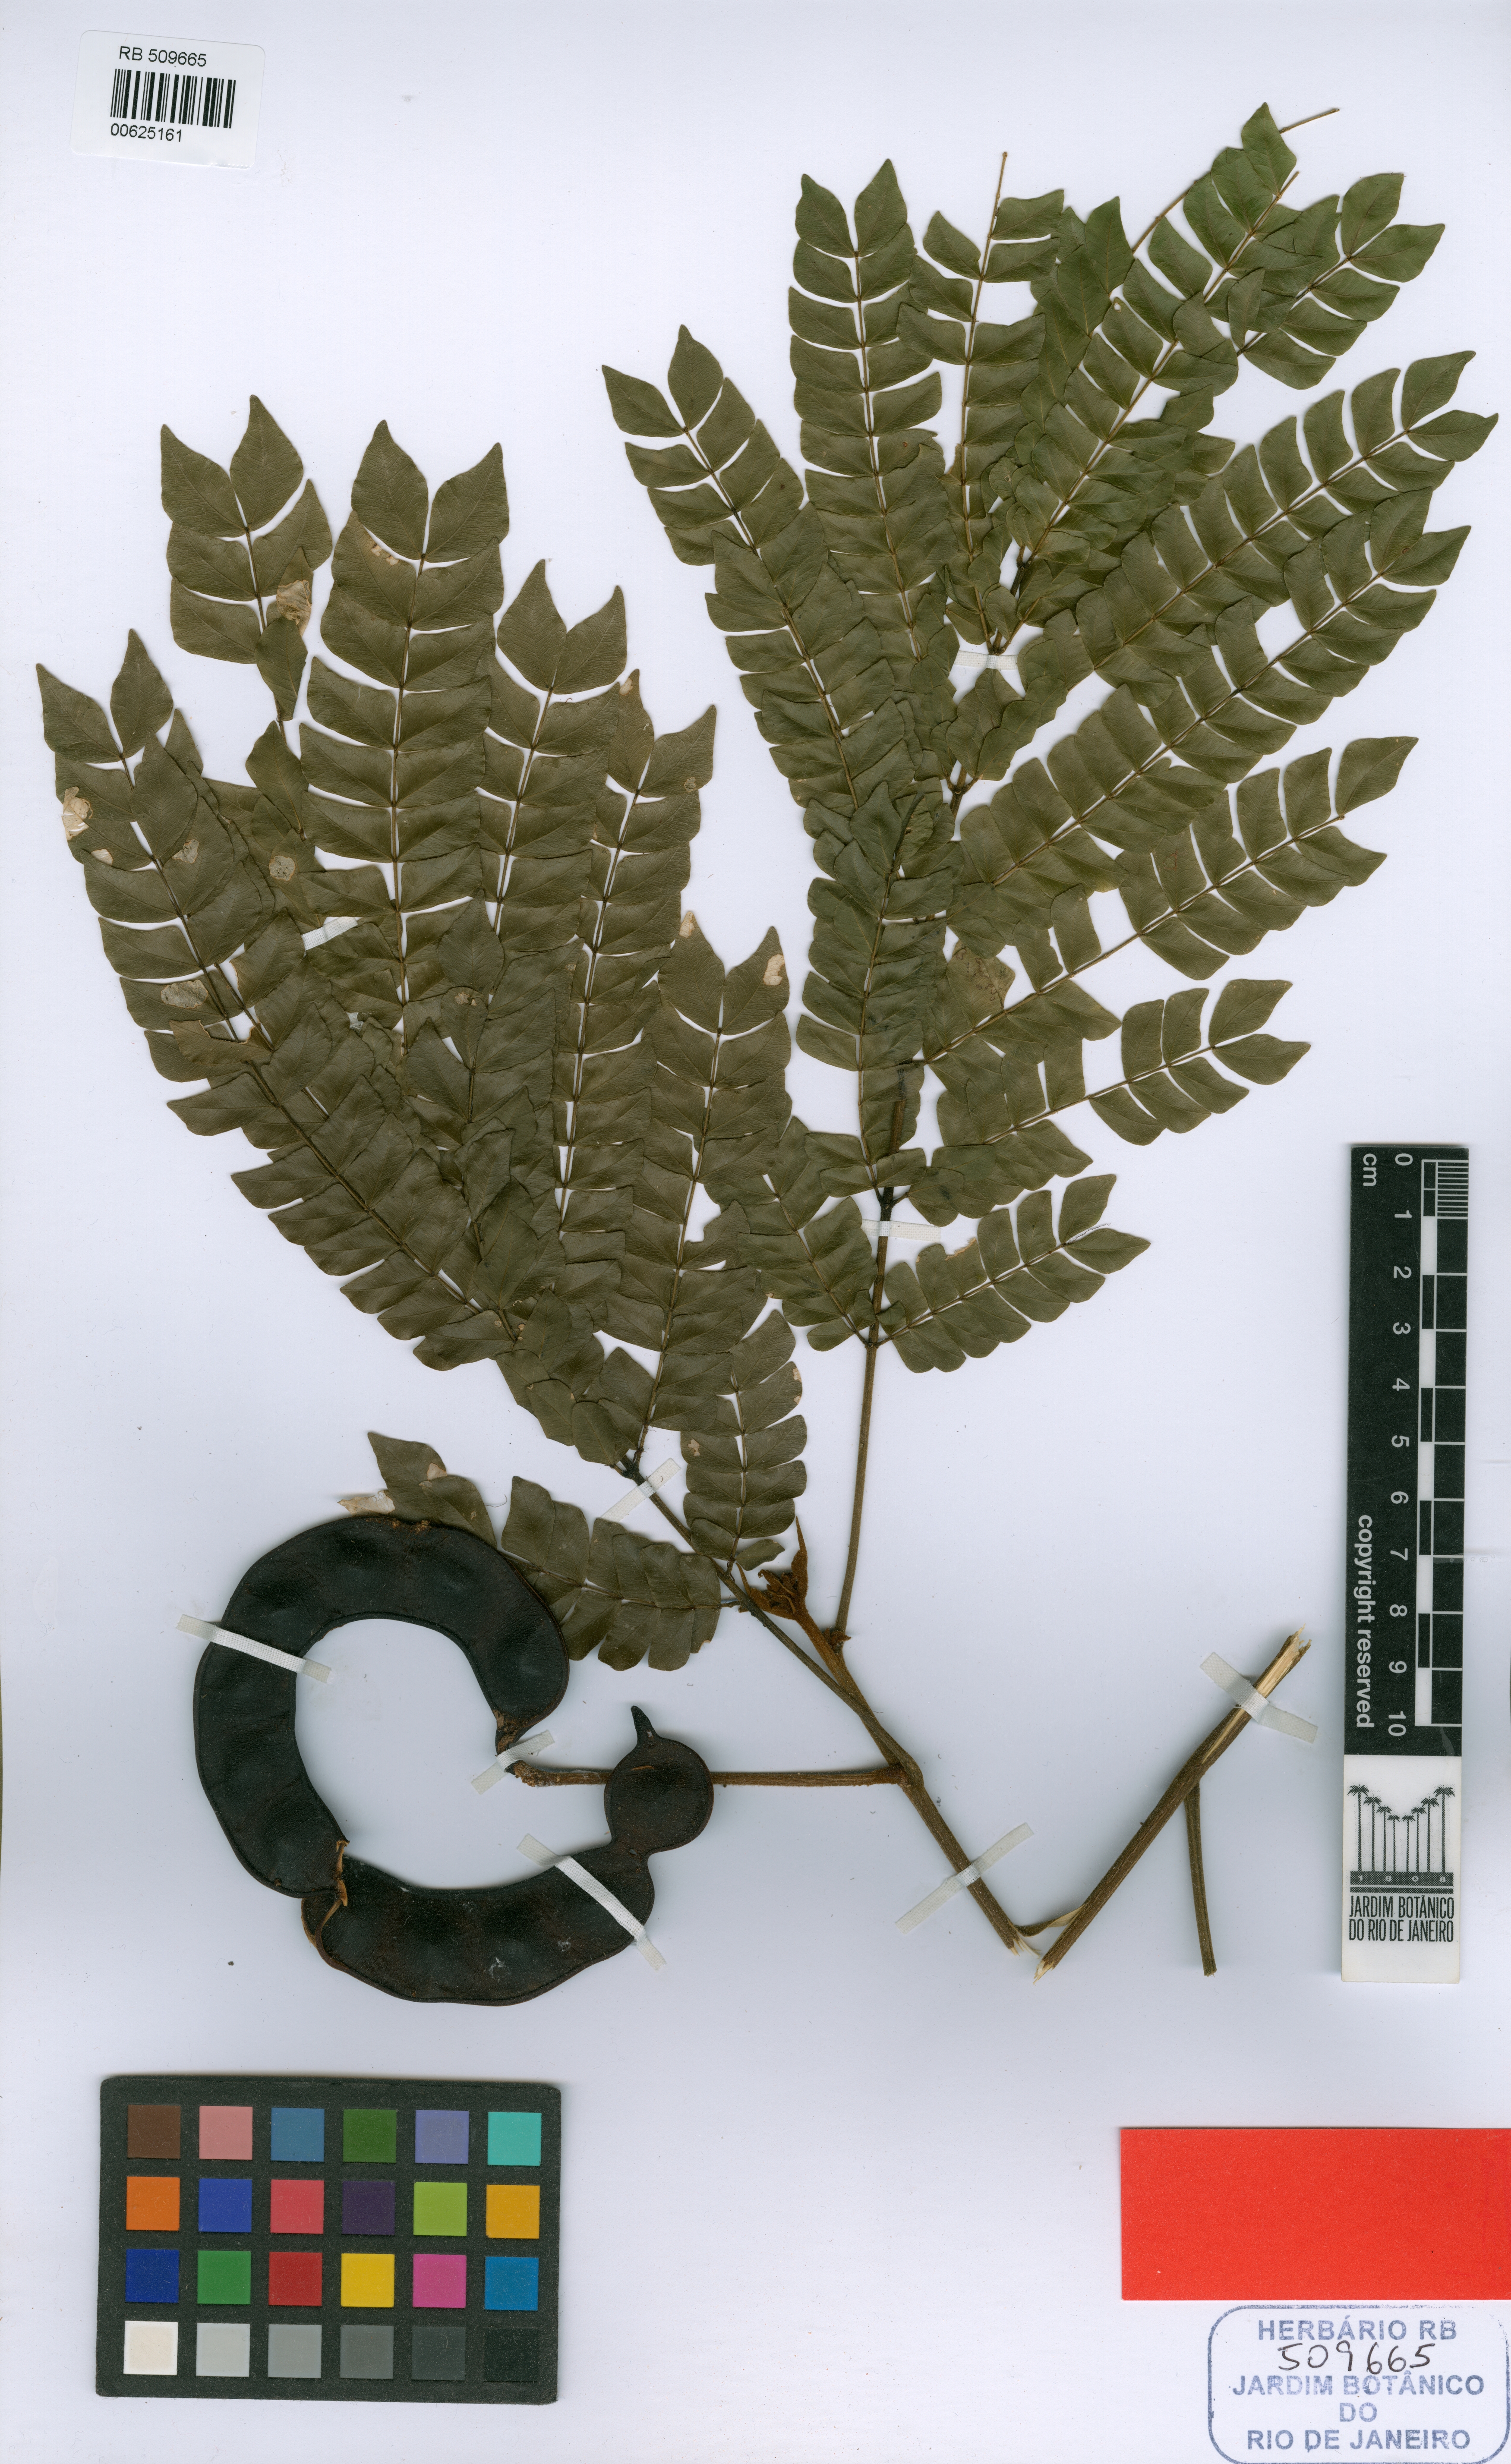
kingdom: Plantae
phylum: Tracheophyta
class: Magnoliopsida
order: Fabales
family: Fabaceae
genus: Jupunba
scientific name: Jupunba rhombea
